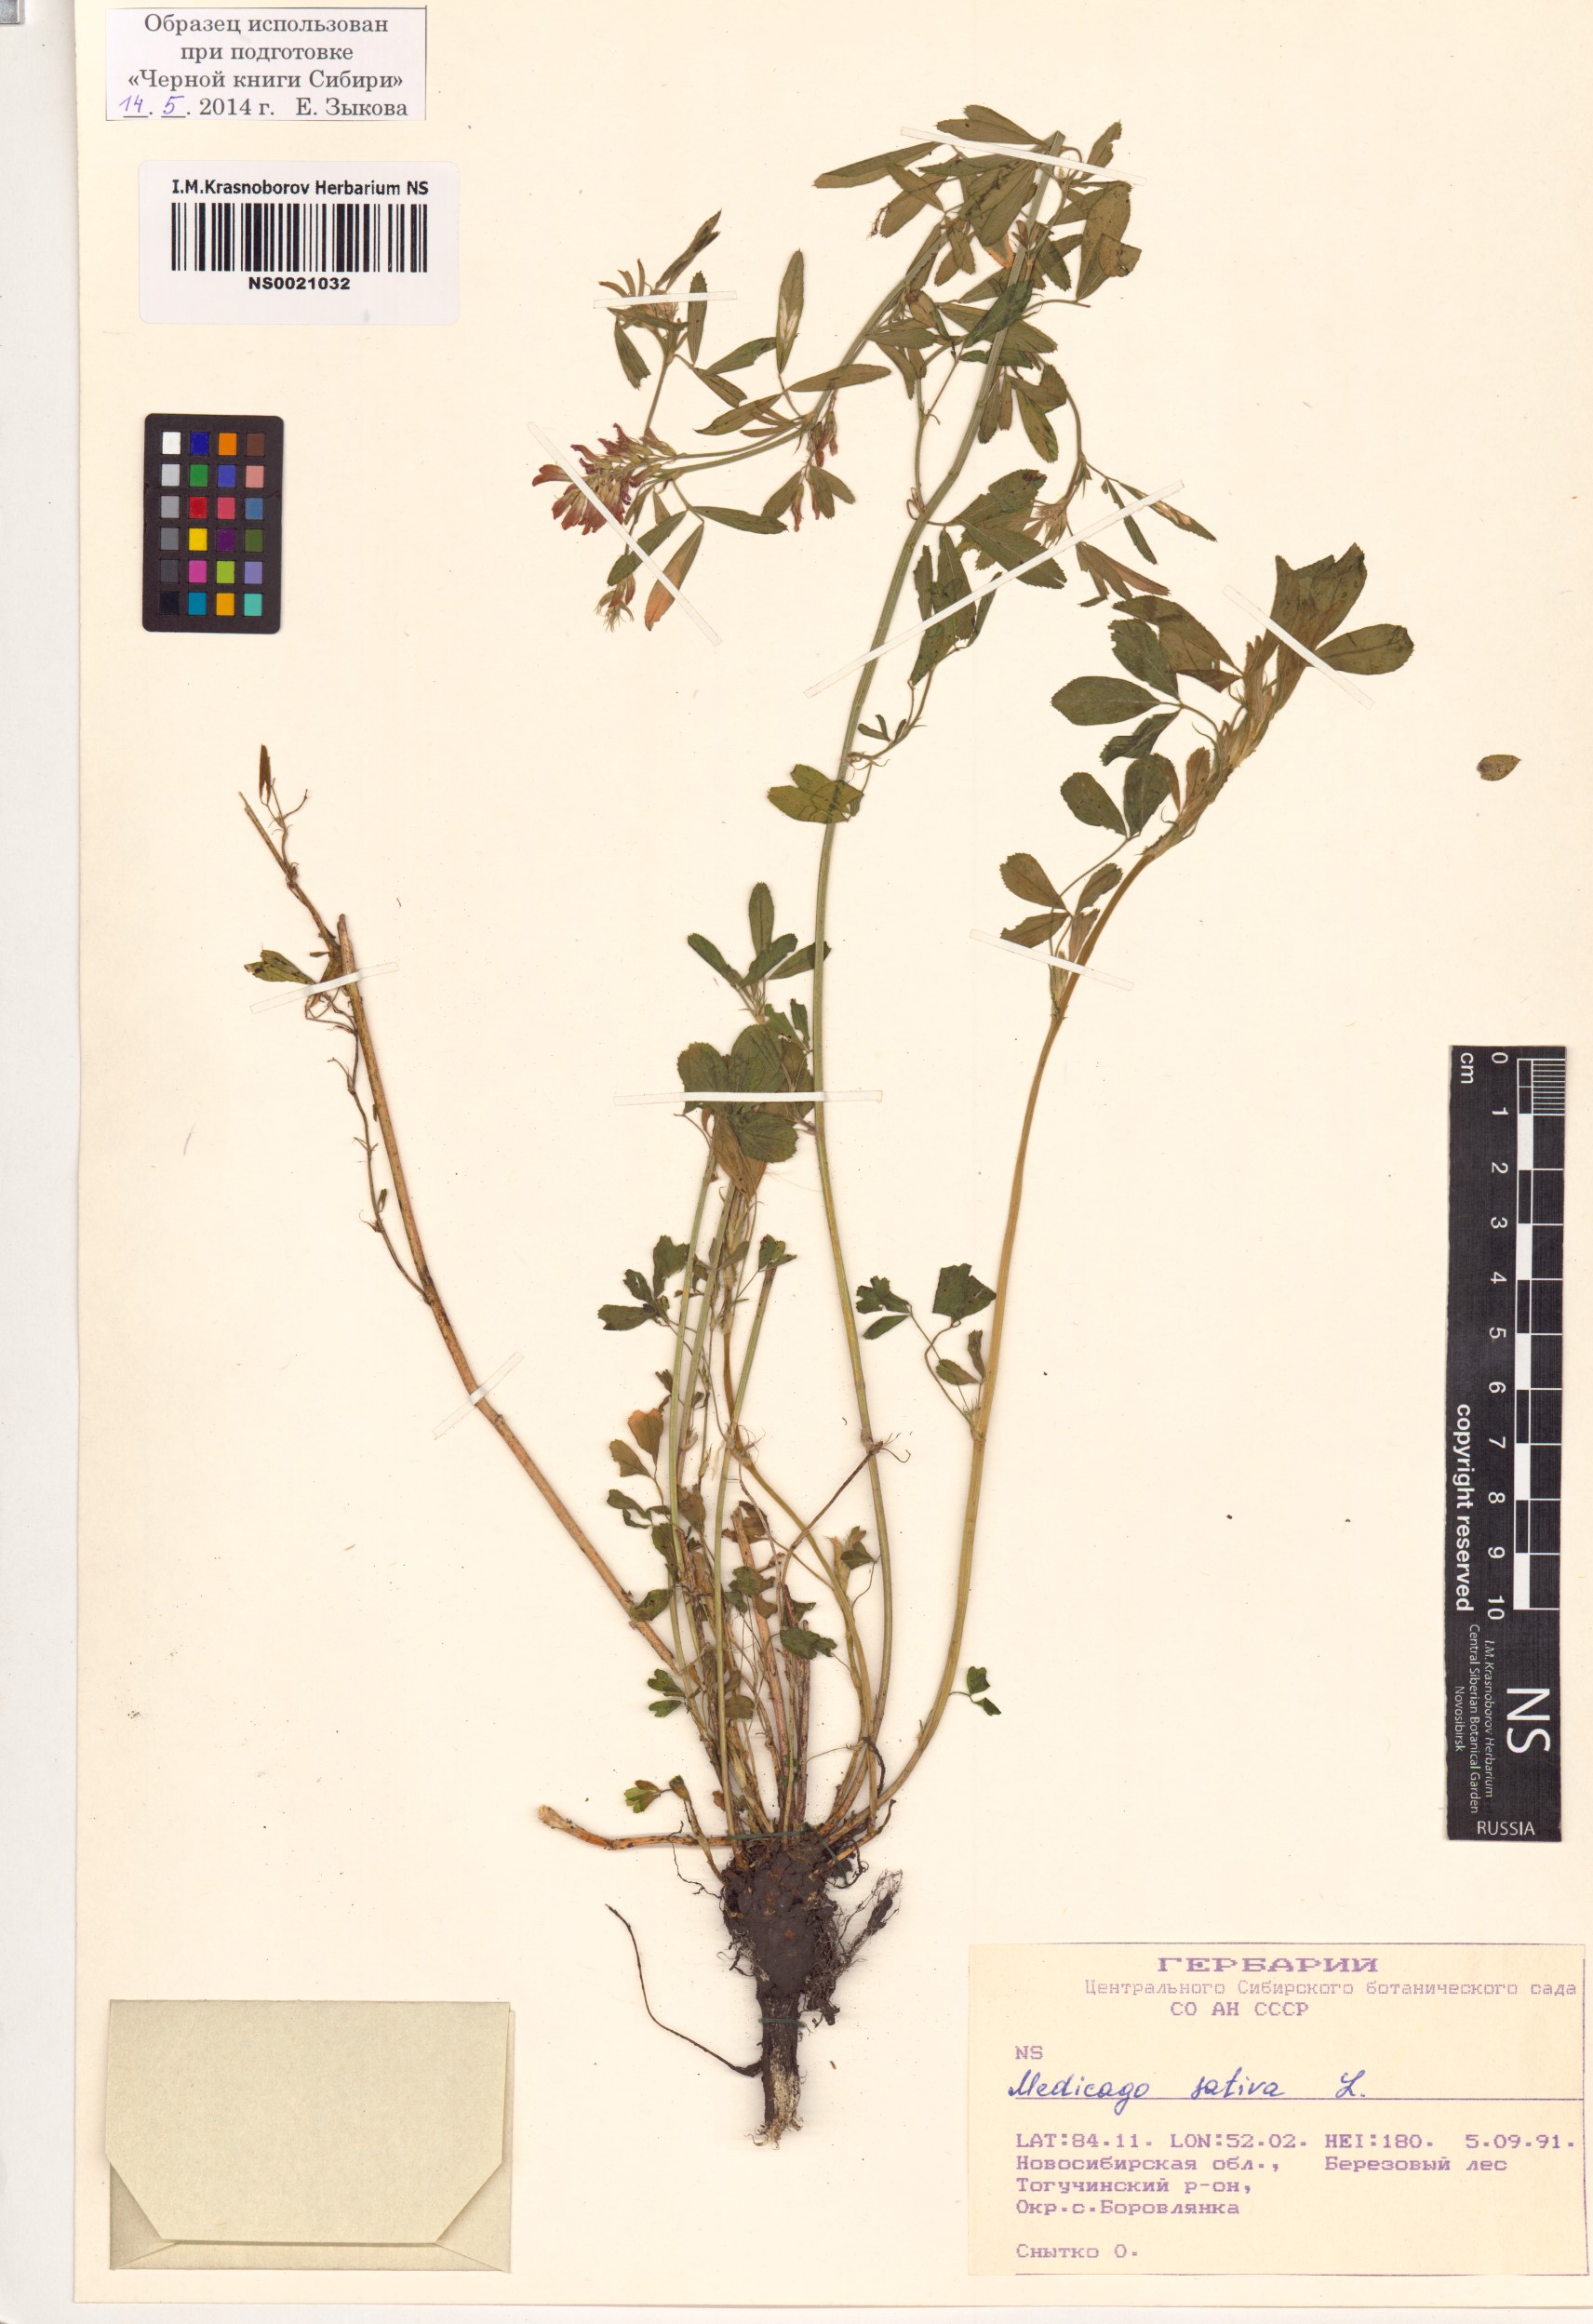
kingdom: Plantae
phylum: Tracheophyta
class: Magnoliopsida
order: Fabales
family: Fabaceae
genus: Medicago
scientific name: Medicago sativa
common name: Alfalfa
